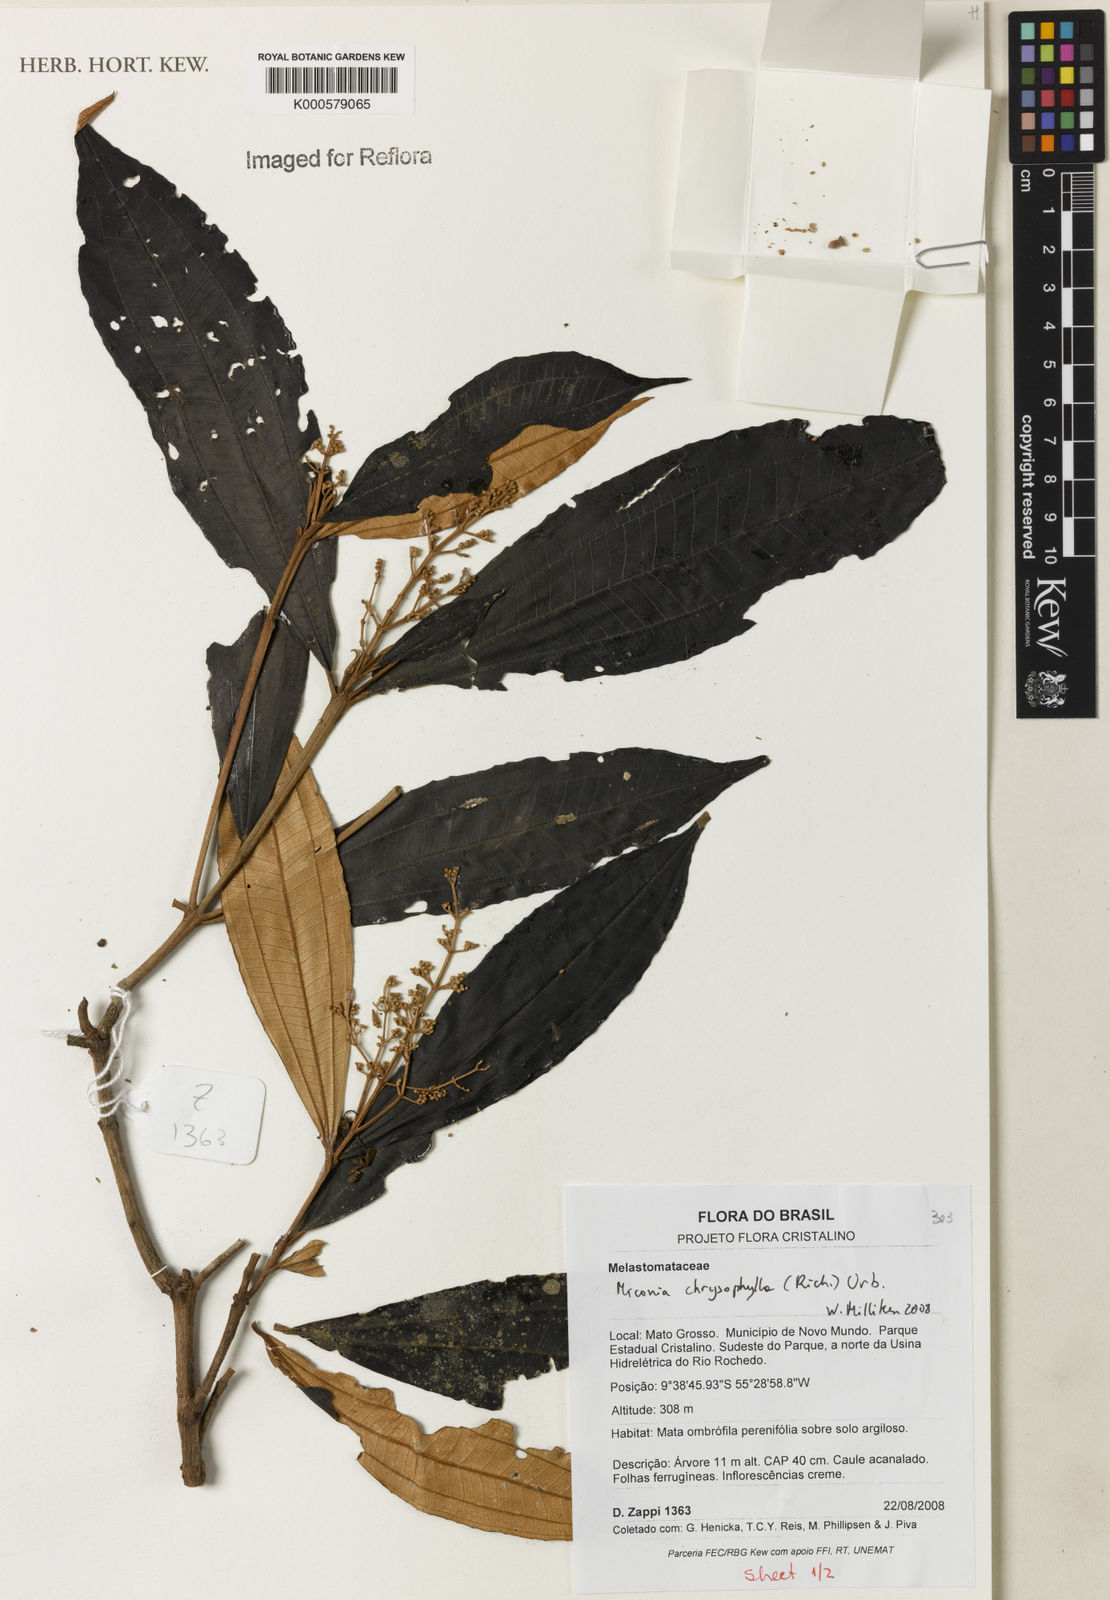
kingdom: Plantae
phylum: Tracheophyta
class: Magnoliopsida
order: Myrtales
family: Melastomataceae
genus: Miconia
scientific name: Miconia chrysophylla
